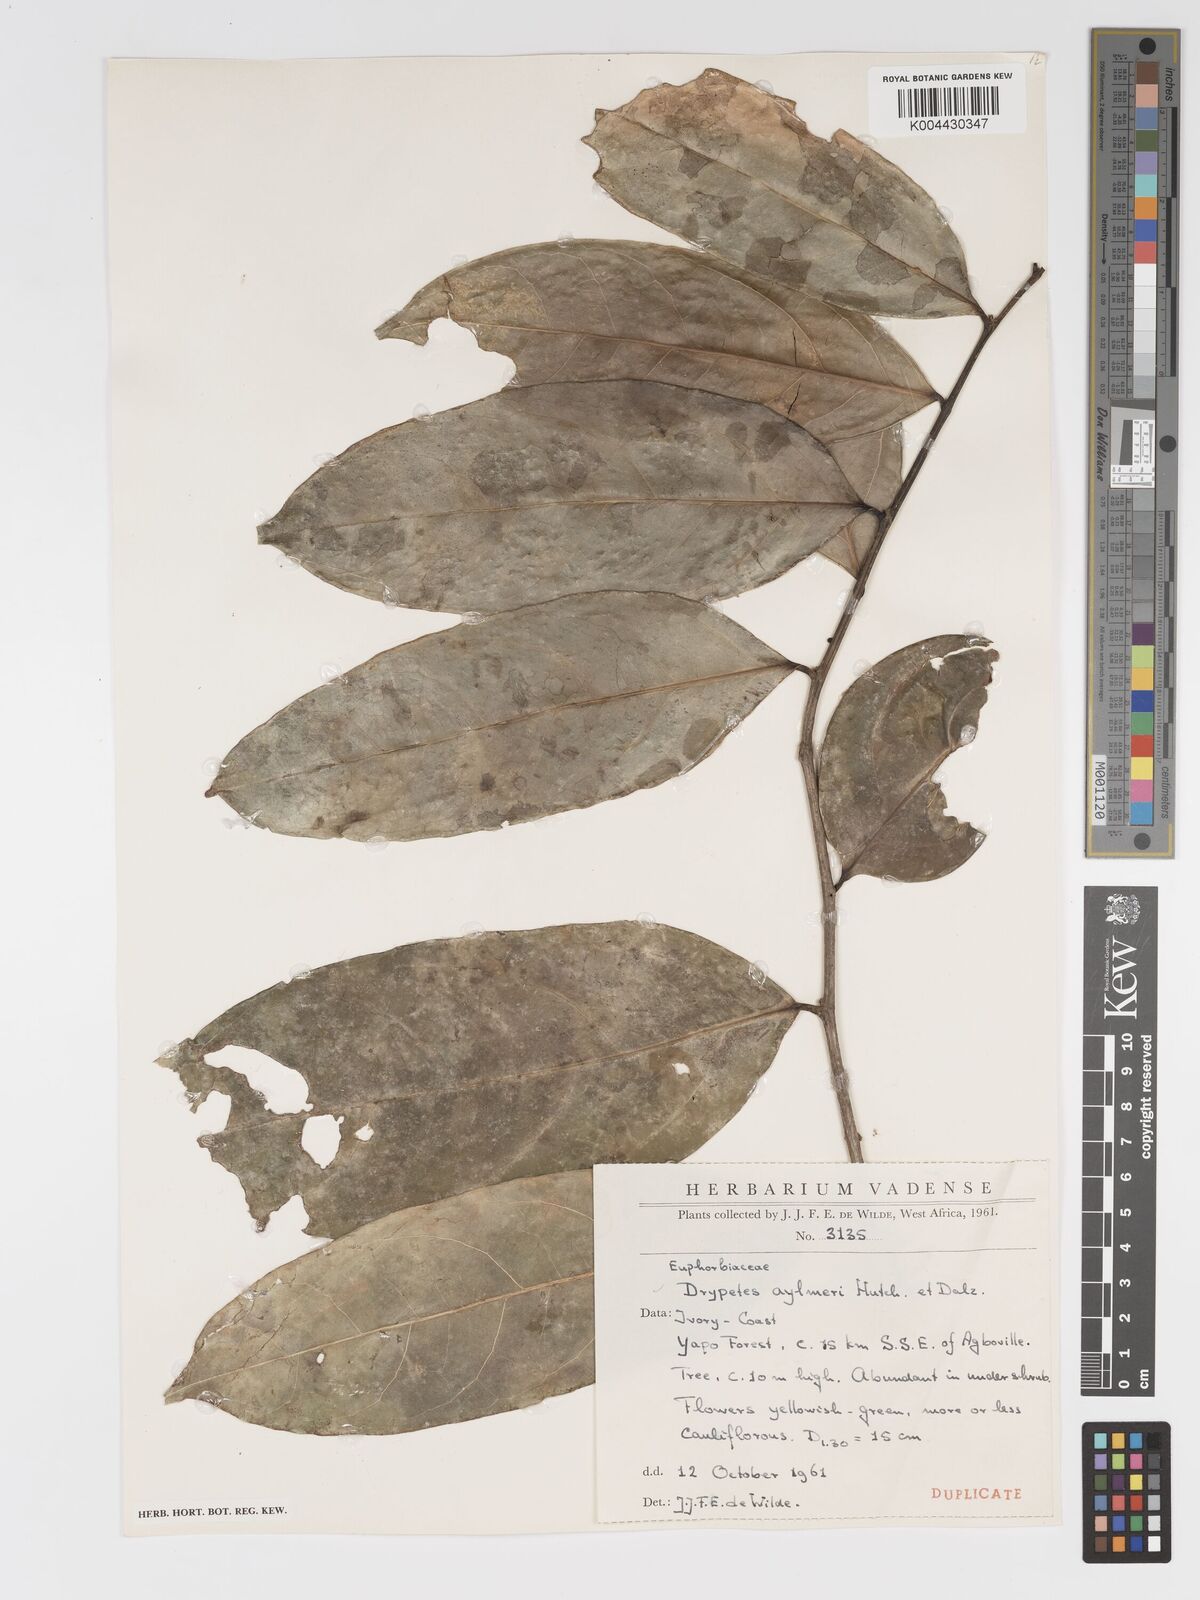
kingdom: Plantae
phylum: Tracheophyta
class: Magnoliopsida
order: Malpighiales
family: Putranjivaceae
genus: Drypetes
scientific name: Drypetes aylmeri
